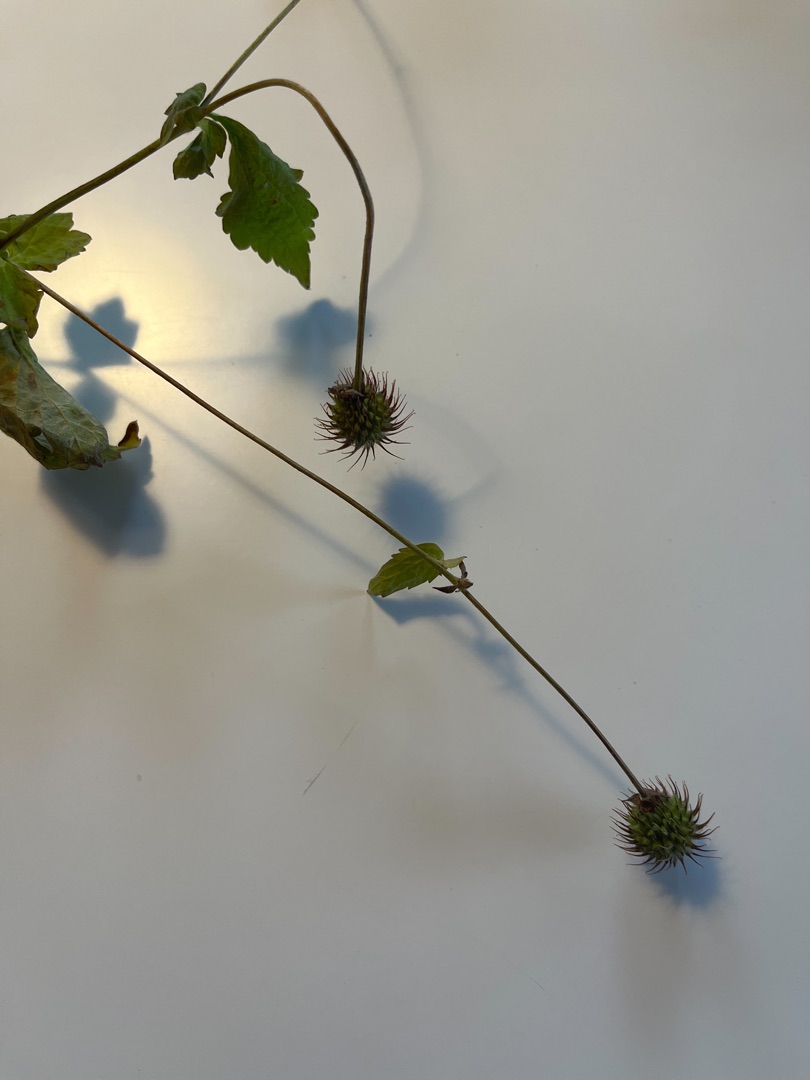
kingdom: Plantae
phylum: Tracheophyta
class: Magnoliopsida
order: Rosales
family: Rosaceae
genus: Geum
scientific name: Geum urbanum
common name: Feber-nellikerod
